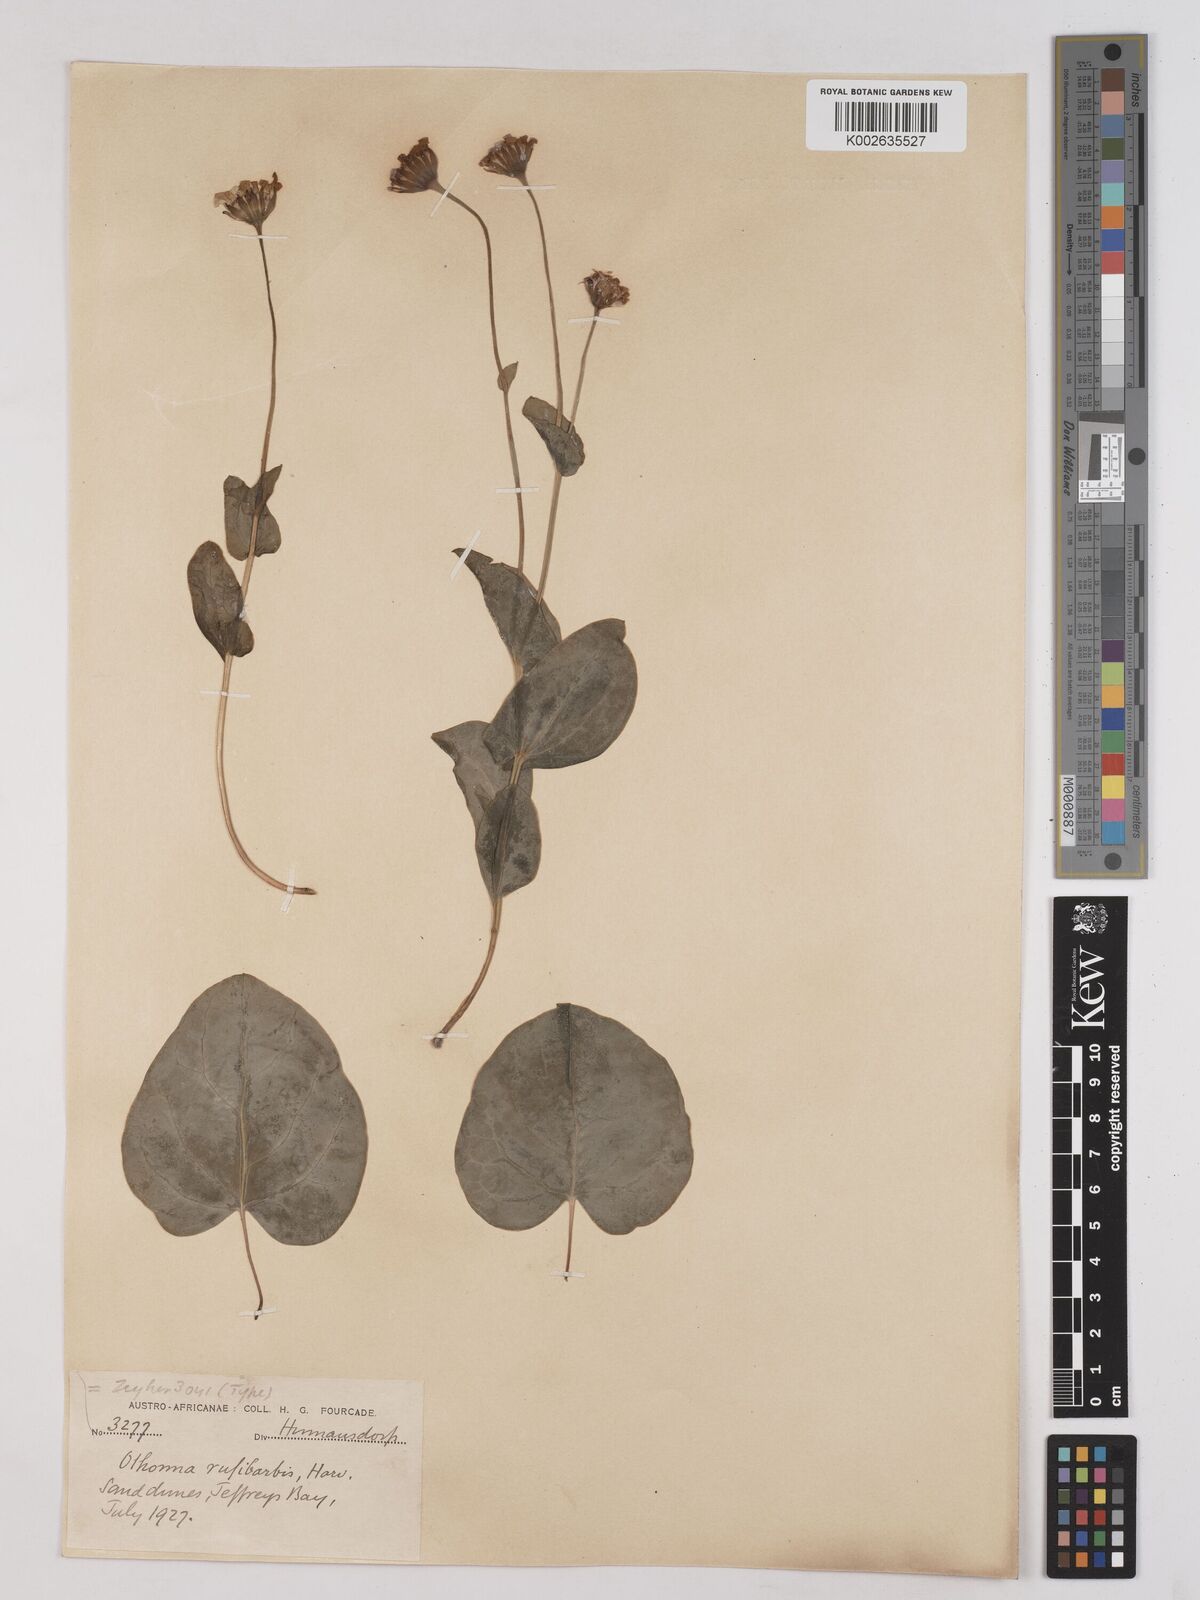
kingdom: Plantae
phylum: Tracheophyta
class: Magnoliopsida
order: Asterales
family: Asteraceae
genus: Othonna
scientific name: Othonna rufibarbis
